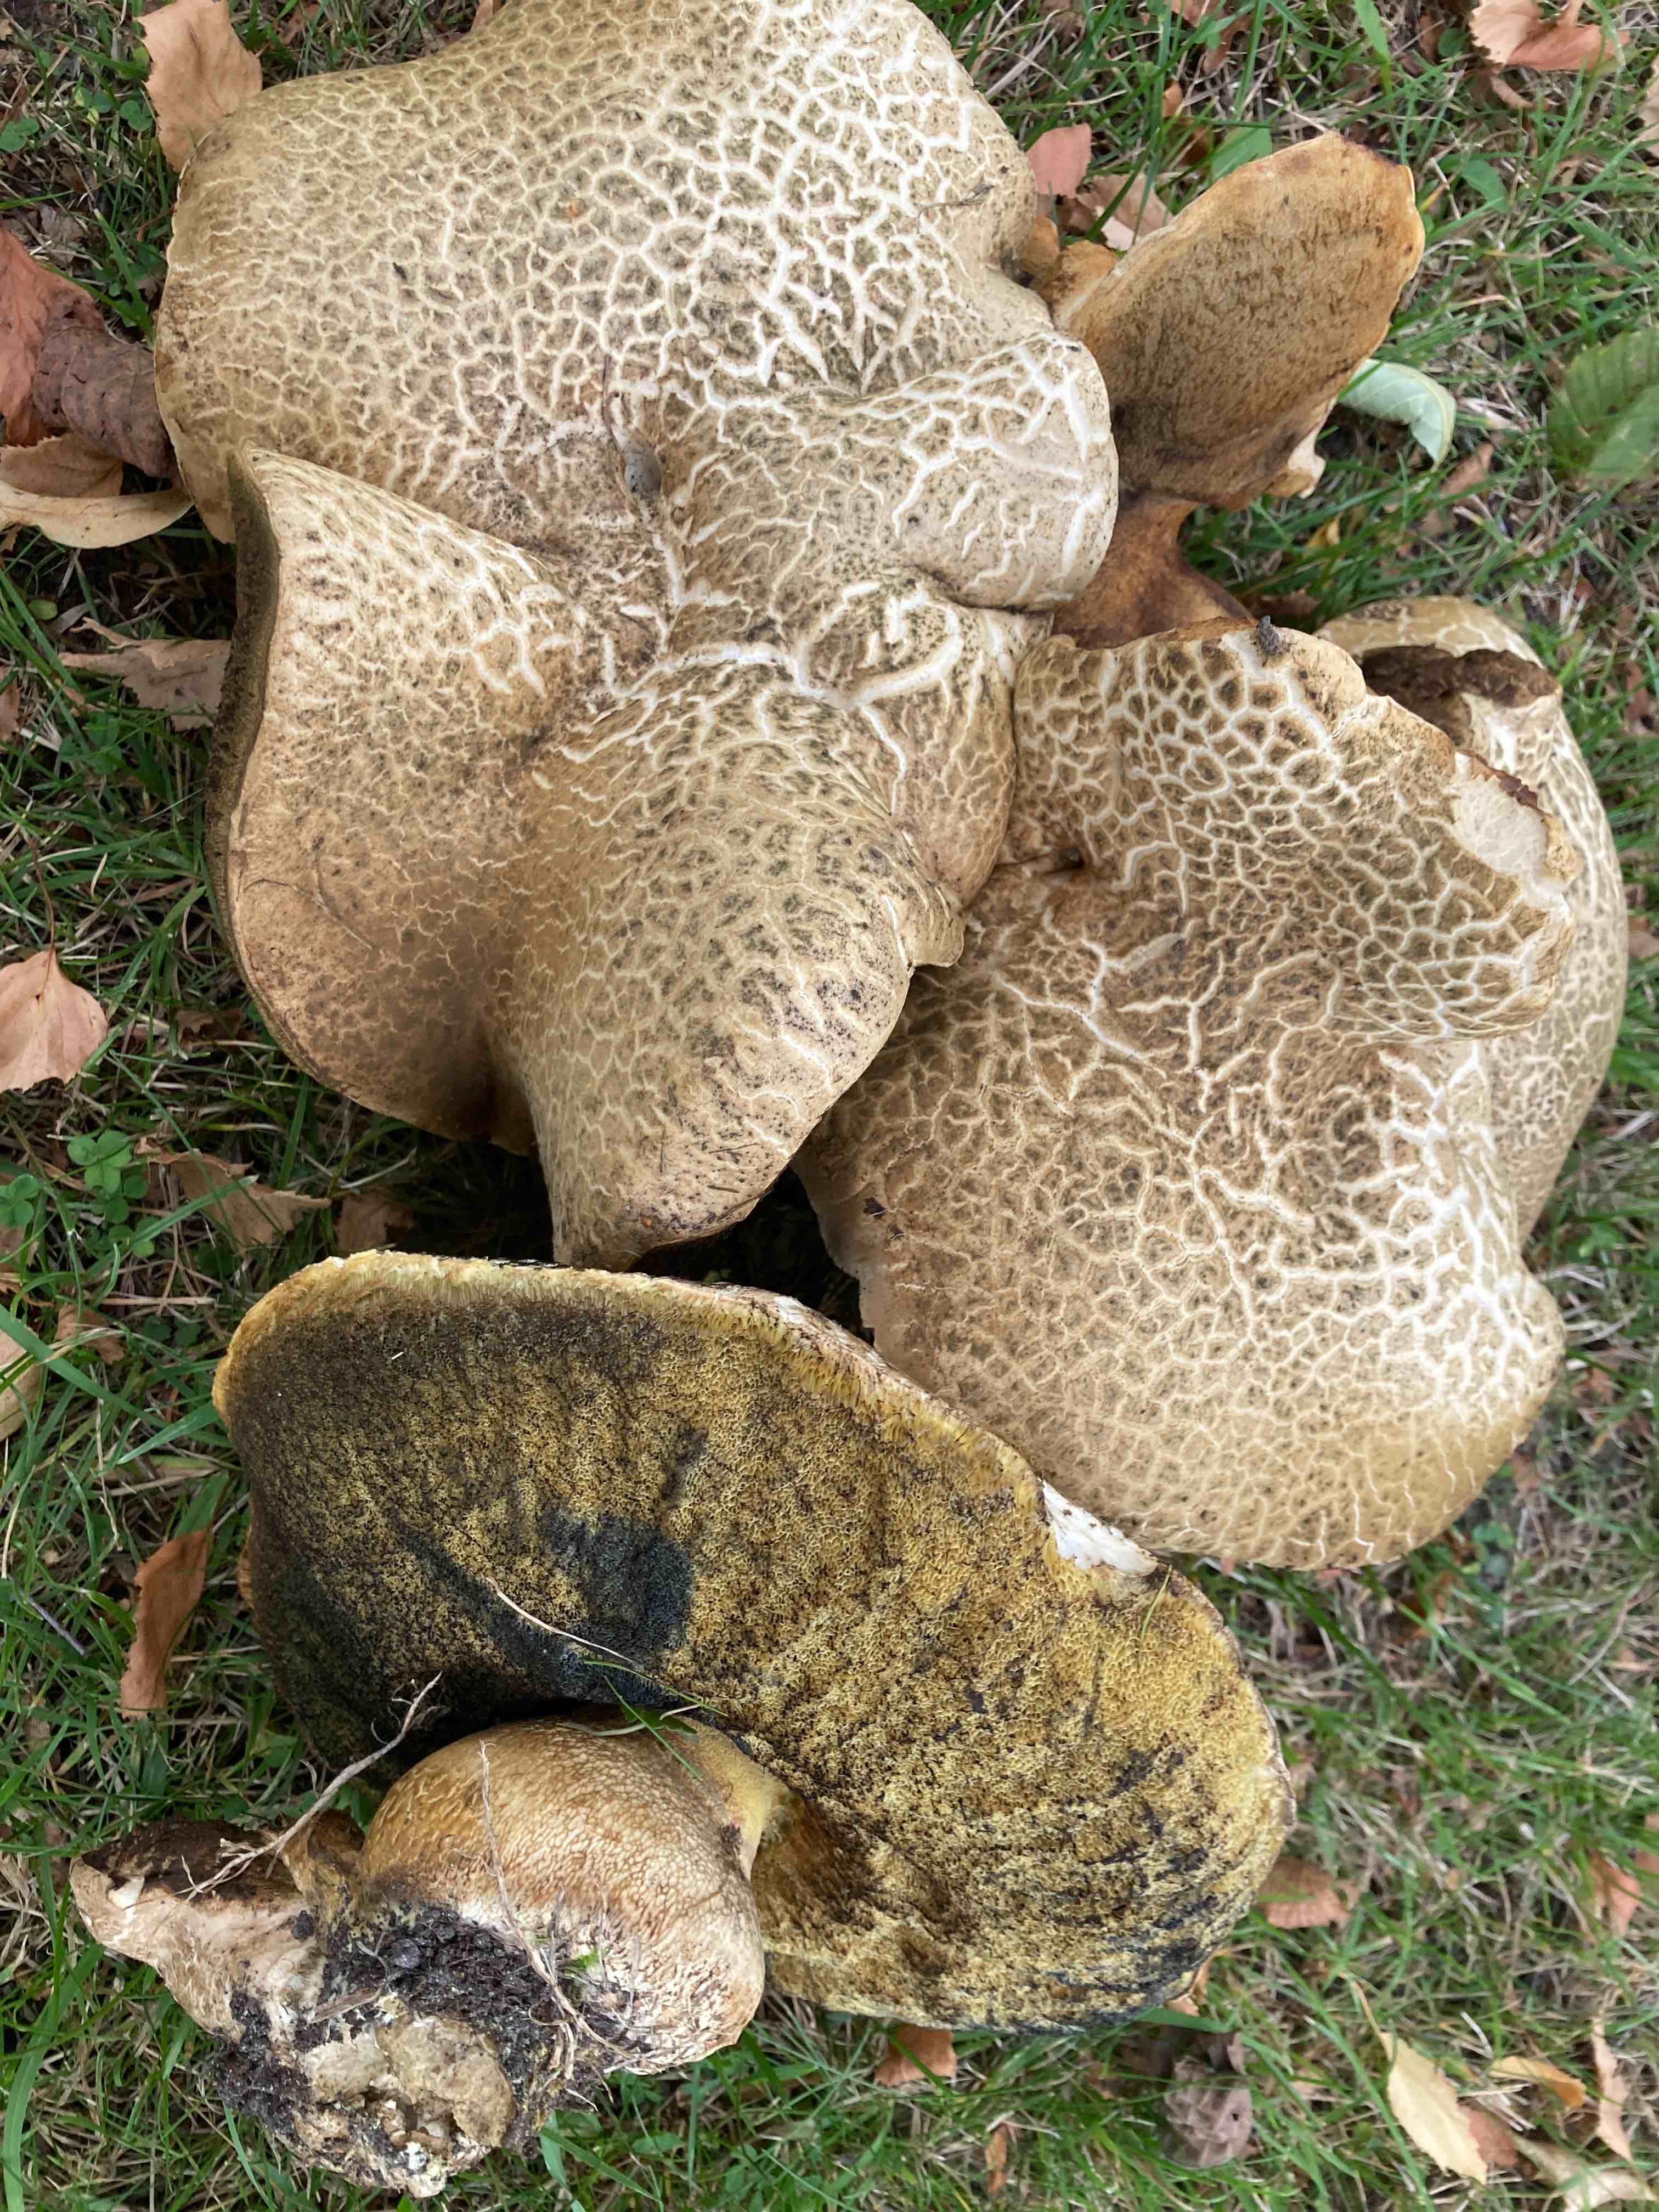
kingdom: Fungi
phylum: Basidiomycota
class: Agaricomycetes
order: Boletales
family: Boletaceae
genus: Caloboletus
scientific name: Caloboletus radicans
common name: rod-rørhat
